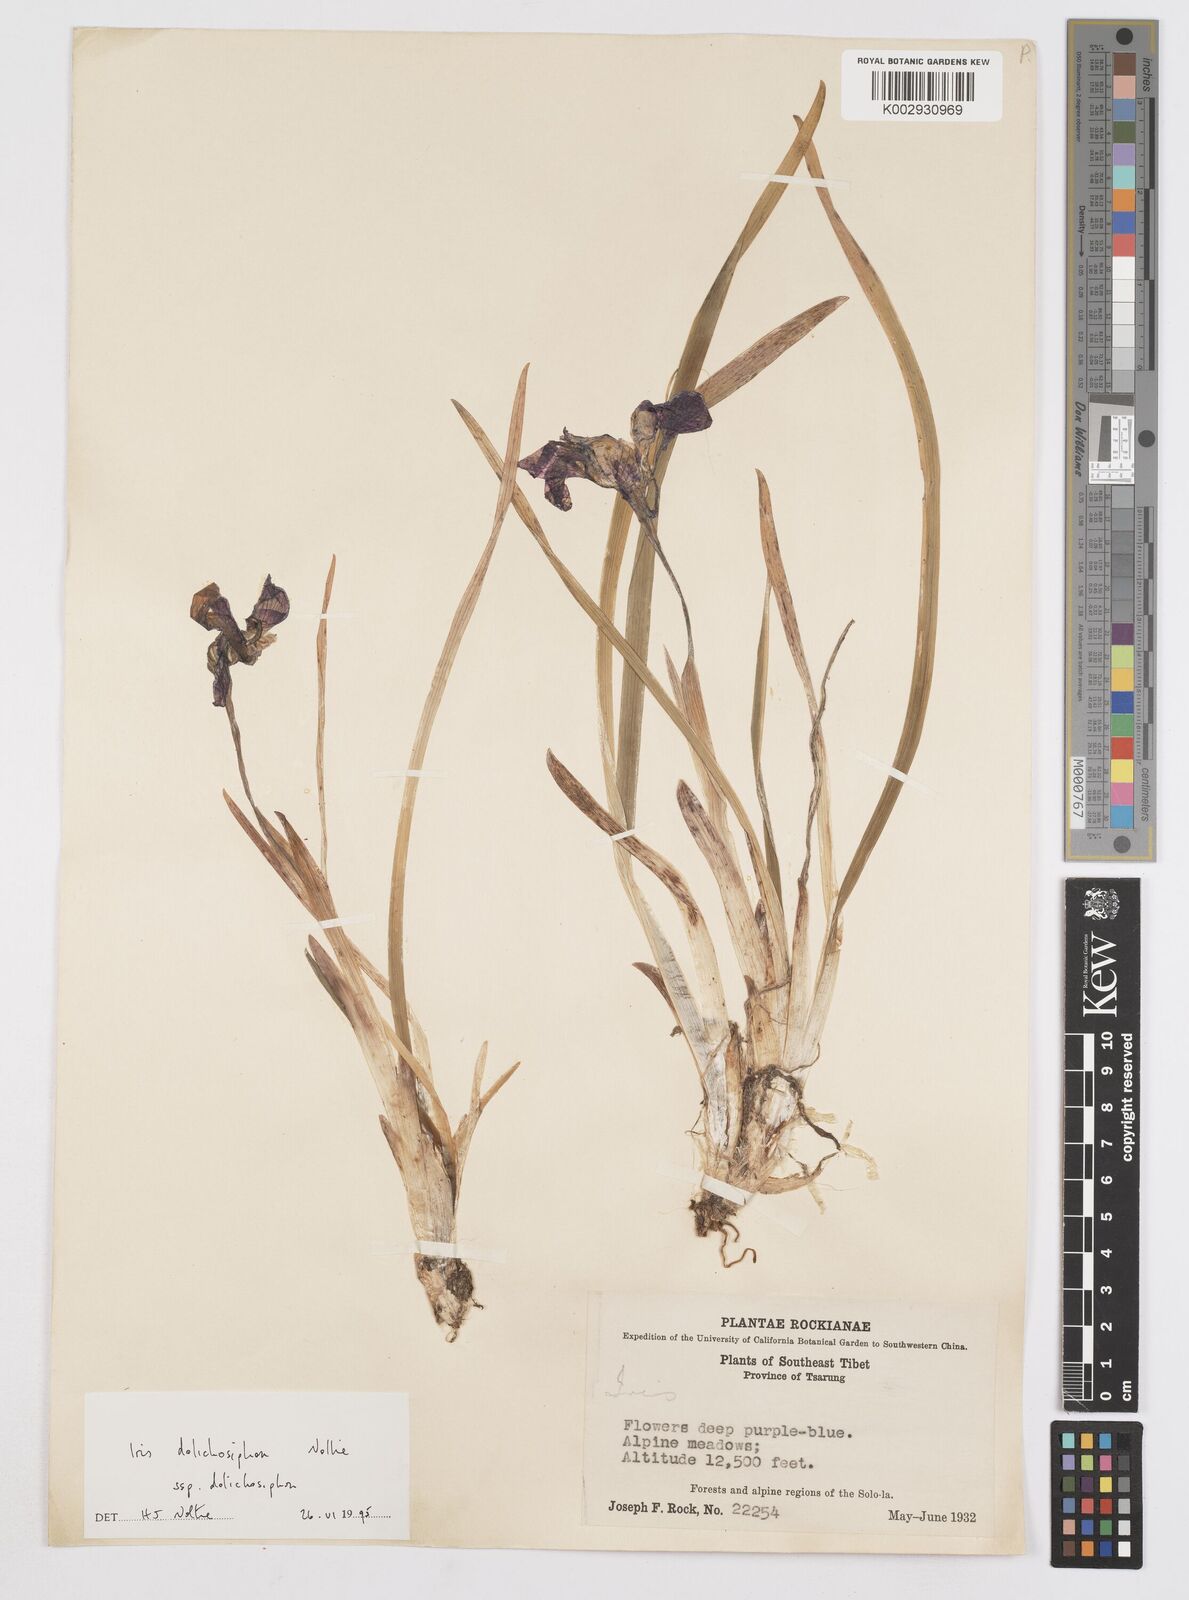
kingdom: Plantae
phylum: Tracheophyta
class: Liliopsida
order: Asparagales
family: Iridaceae
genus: Iris
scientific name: Iris dolichosiphon
